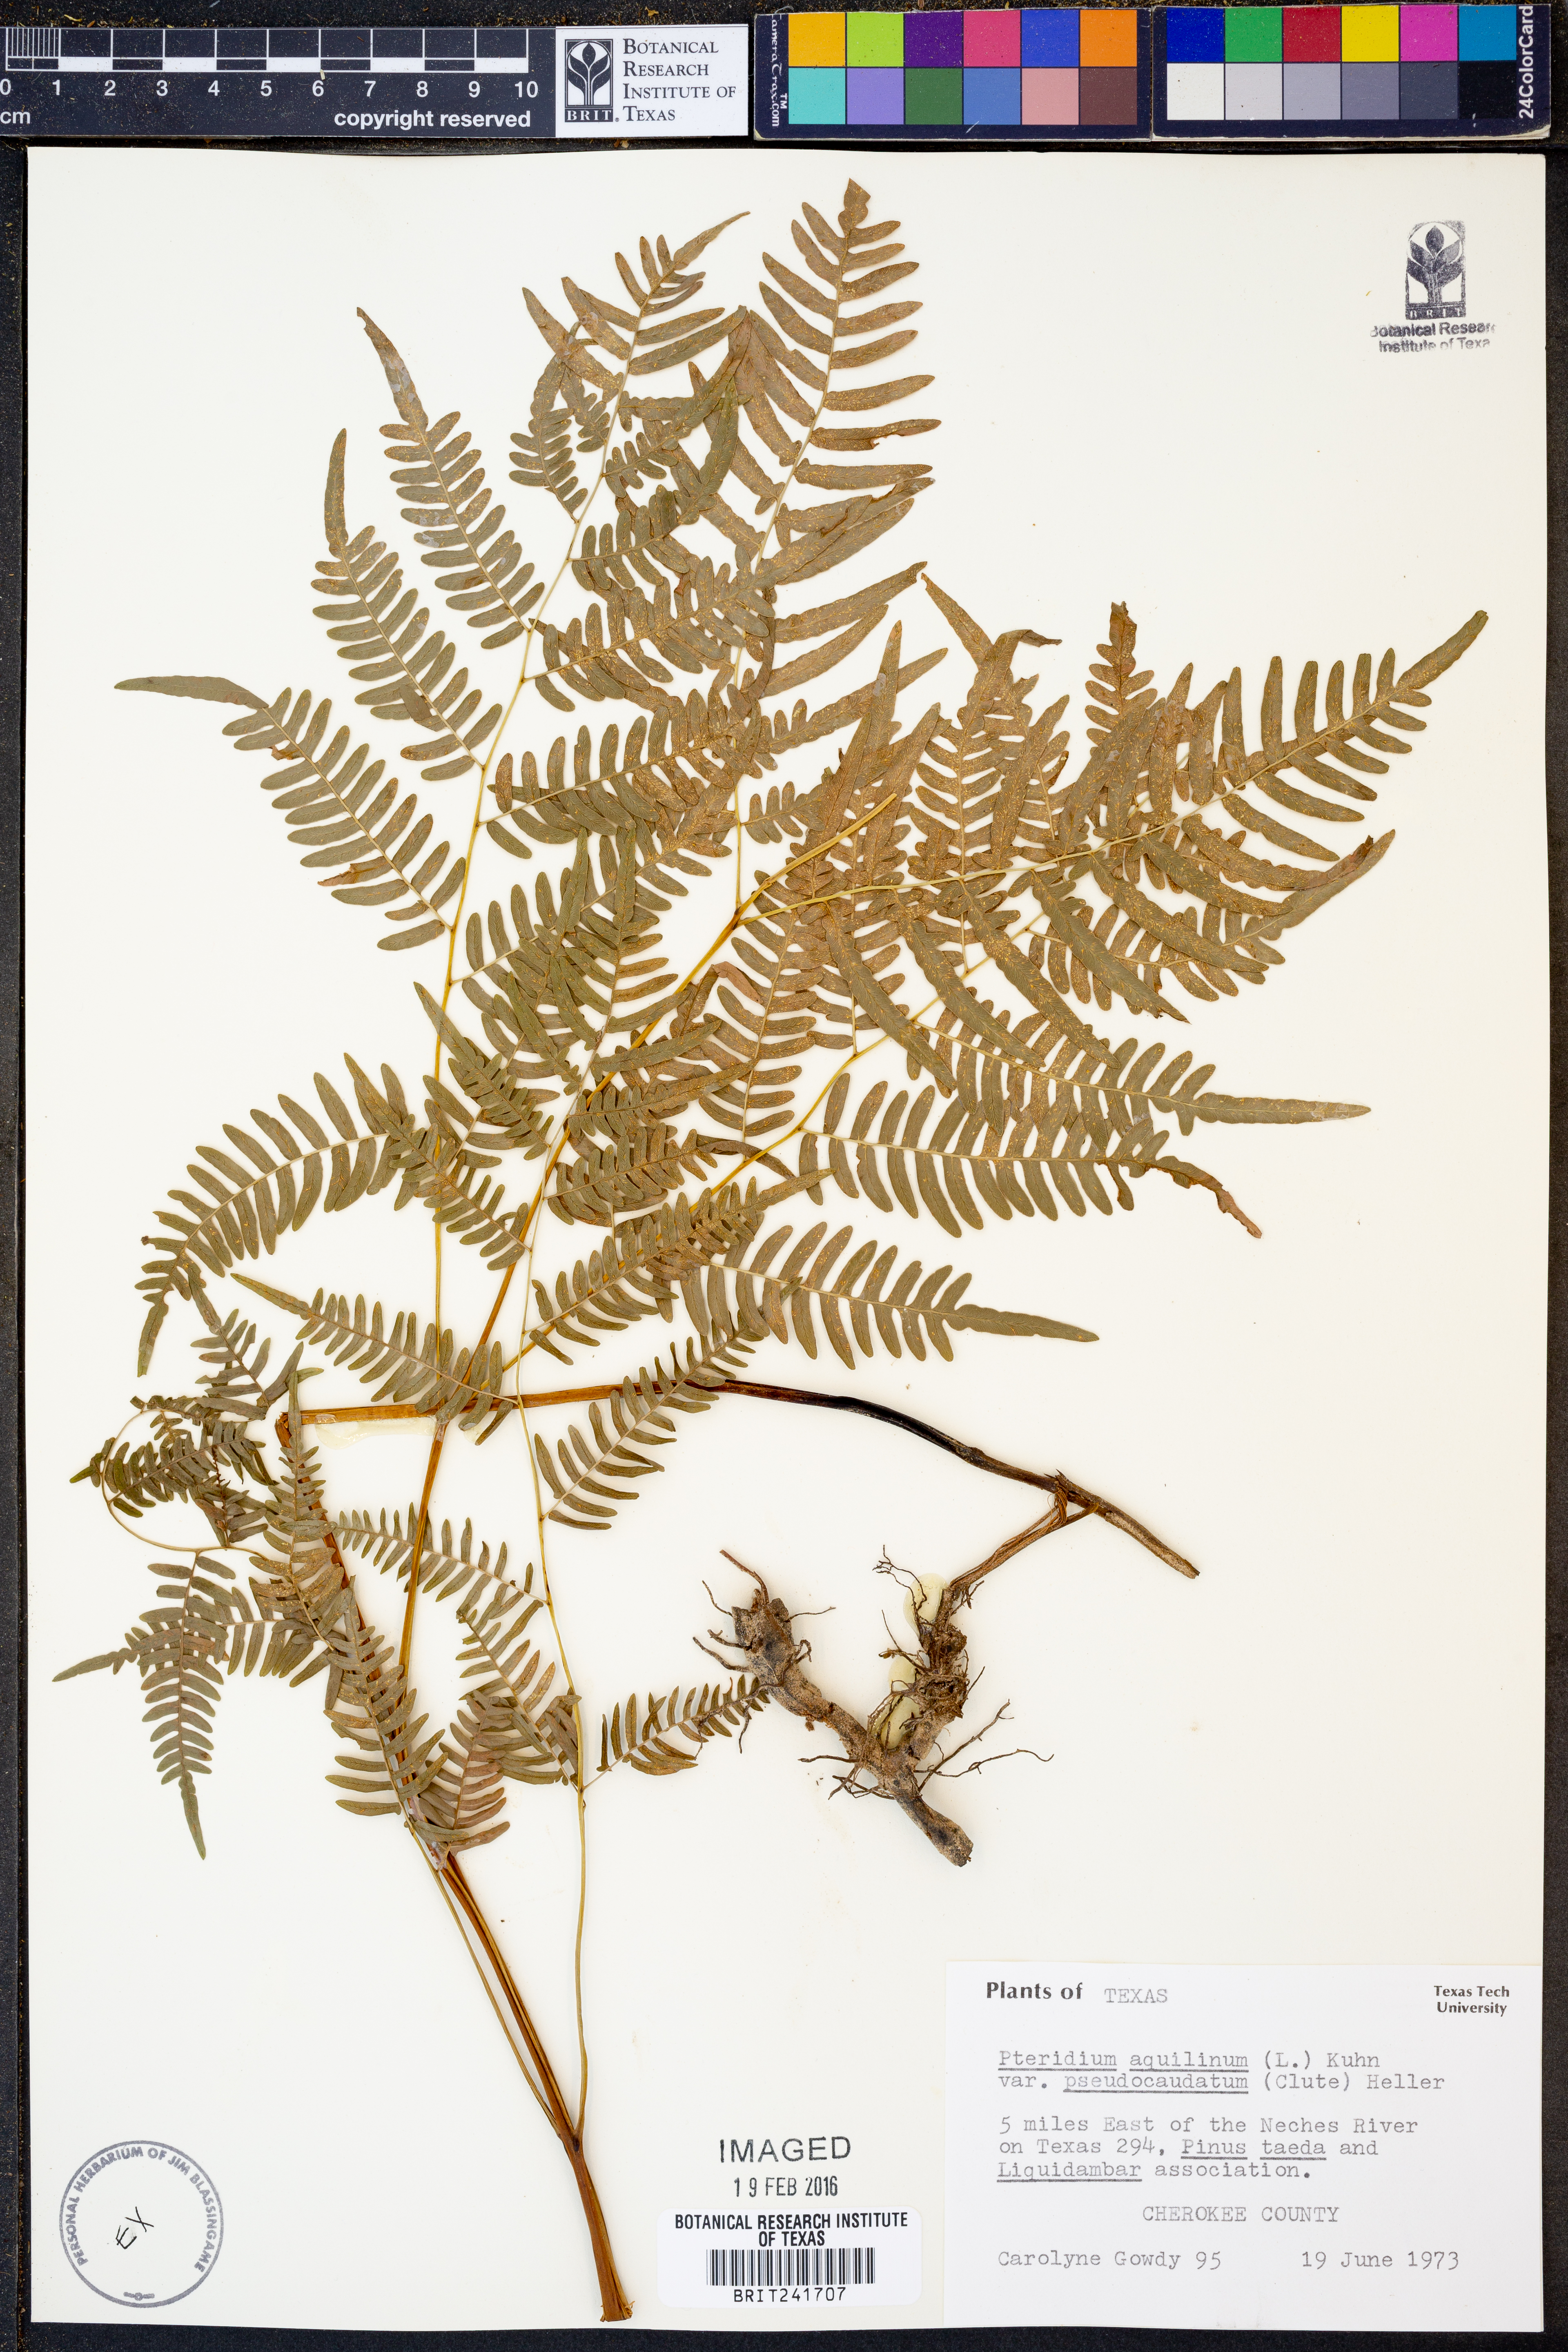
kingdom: Plantae
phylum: Tracheophyta
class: Polypodiopsida
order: Polypodiales
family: Dennstaedtiaceae
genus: Pteridium
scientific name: Pteridium aquilinum
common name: Bracken
